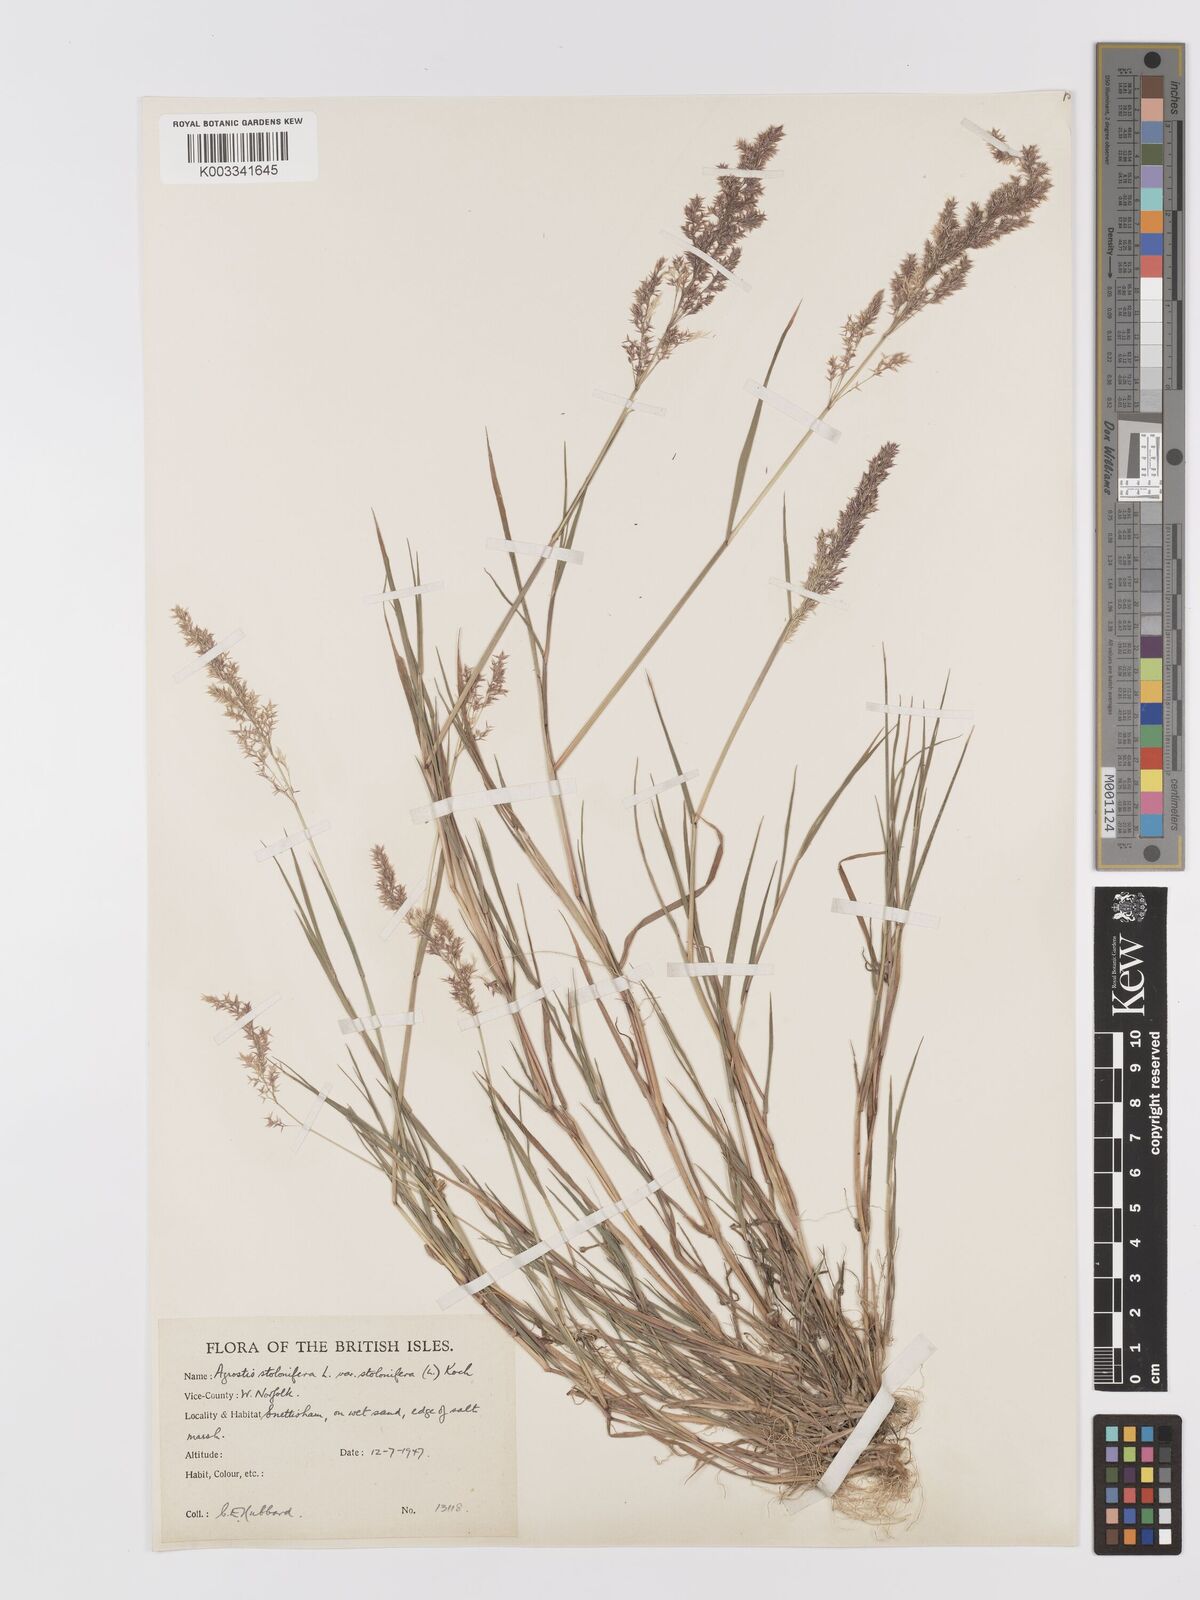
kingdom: Plantae
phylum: Tracheophyta
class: Liliopsida
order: Poales
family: Poaceae
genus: Agrostis
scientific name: Agrostis stolonifera
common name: Creeping bentgrass
